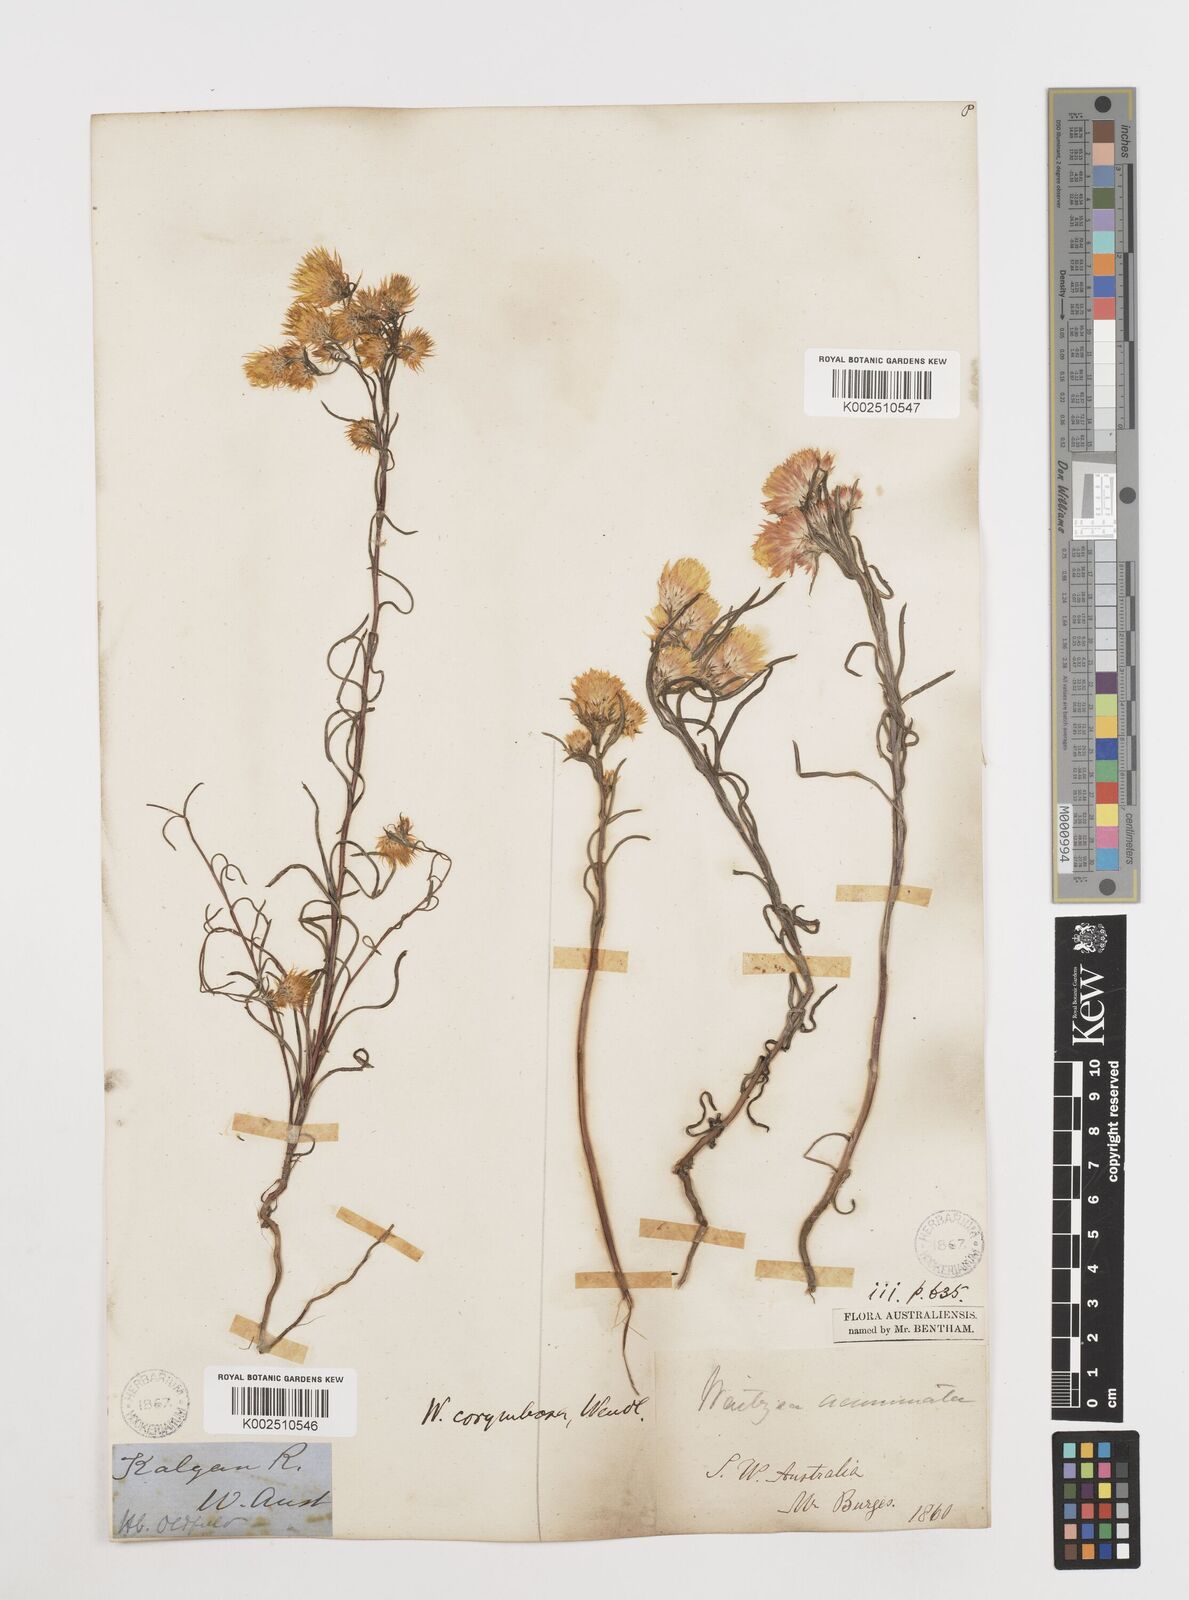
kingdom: Plantae
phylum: Tracheophyta
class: Magnoliopsida
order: Asterales
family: Asteraceae
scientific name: Asteraceae
